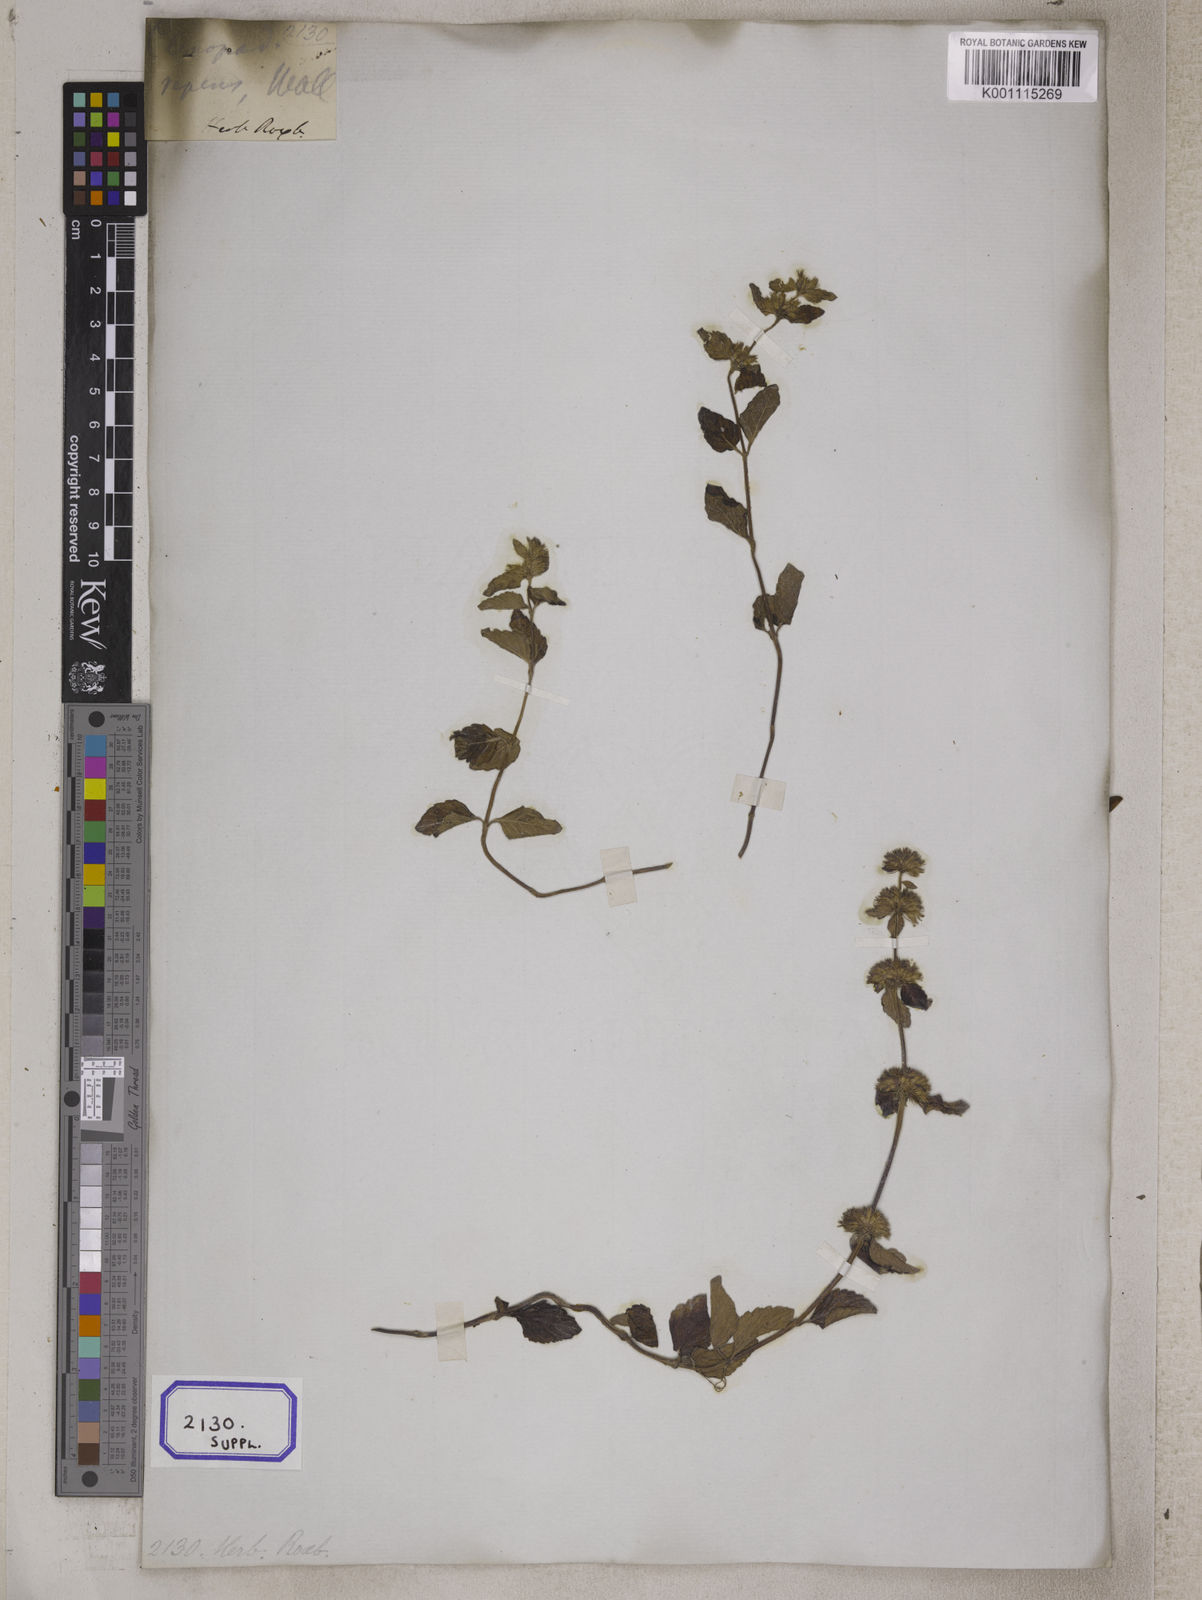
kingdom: Plantae
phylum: Tracheophyta
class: Magnoliopsida
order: Lamiales
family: Lamiaceae
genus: Clinopodium
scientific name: Clinopodium
